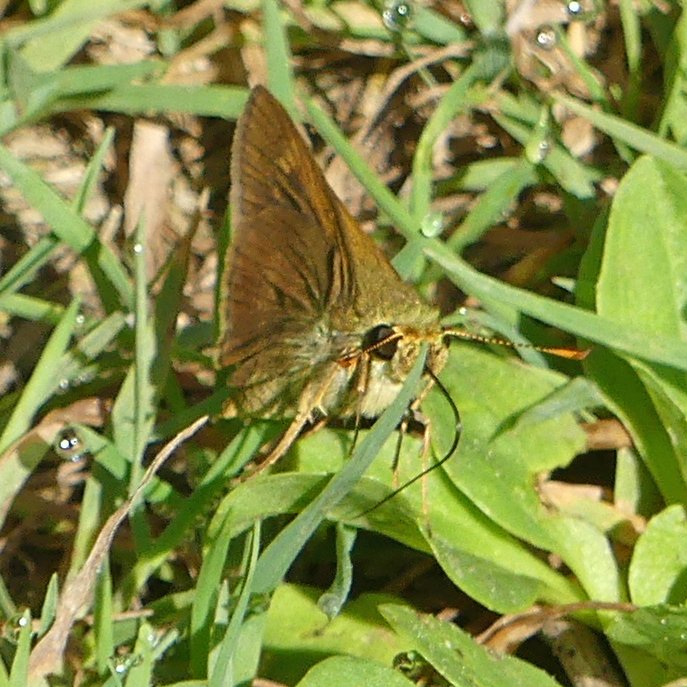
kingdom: Animalia
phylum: Arthropoda
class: Insecta
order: Lepidoptera
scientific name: Lepidoptera
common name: Butterflies
